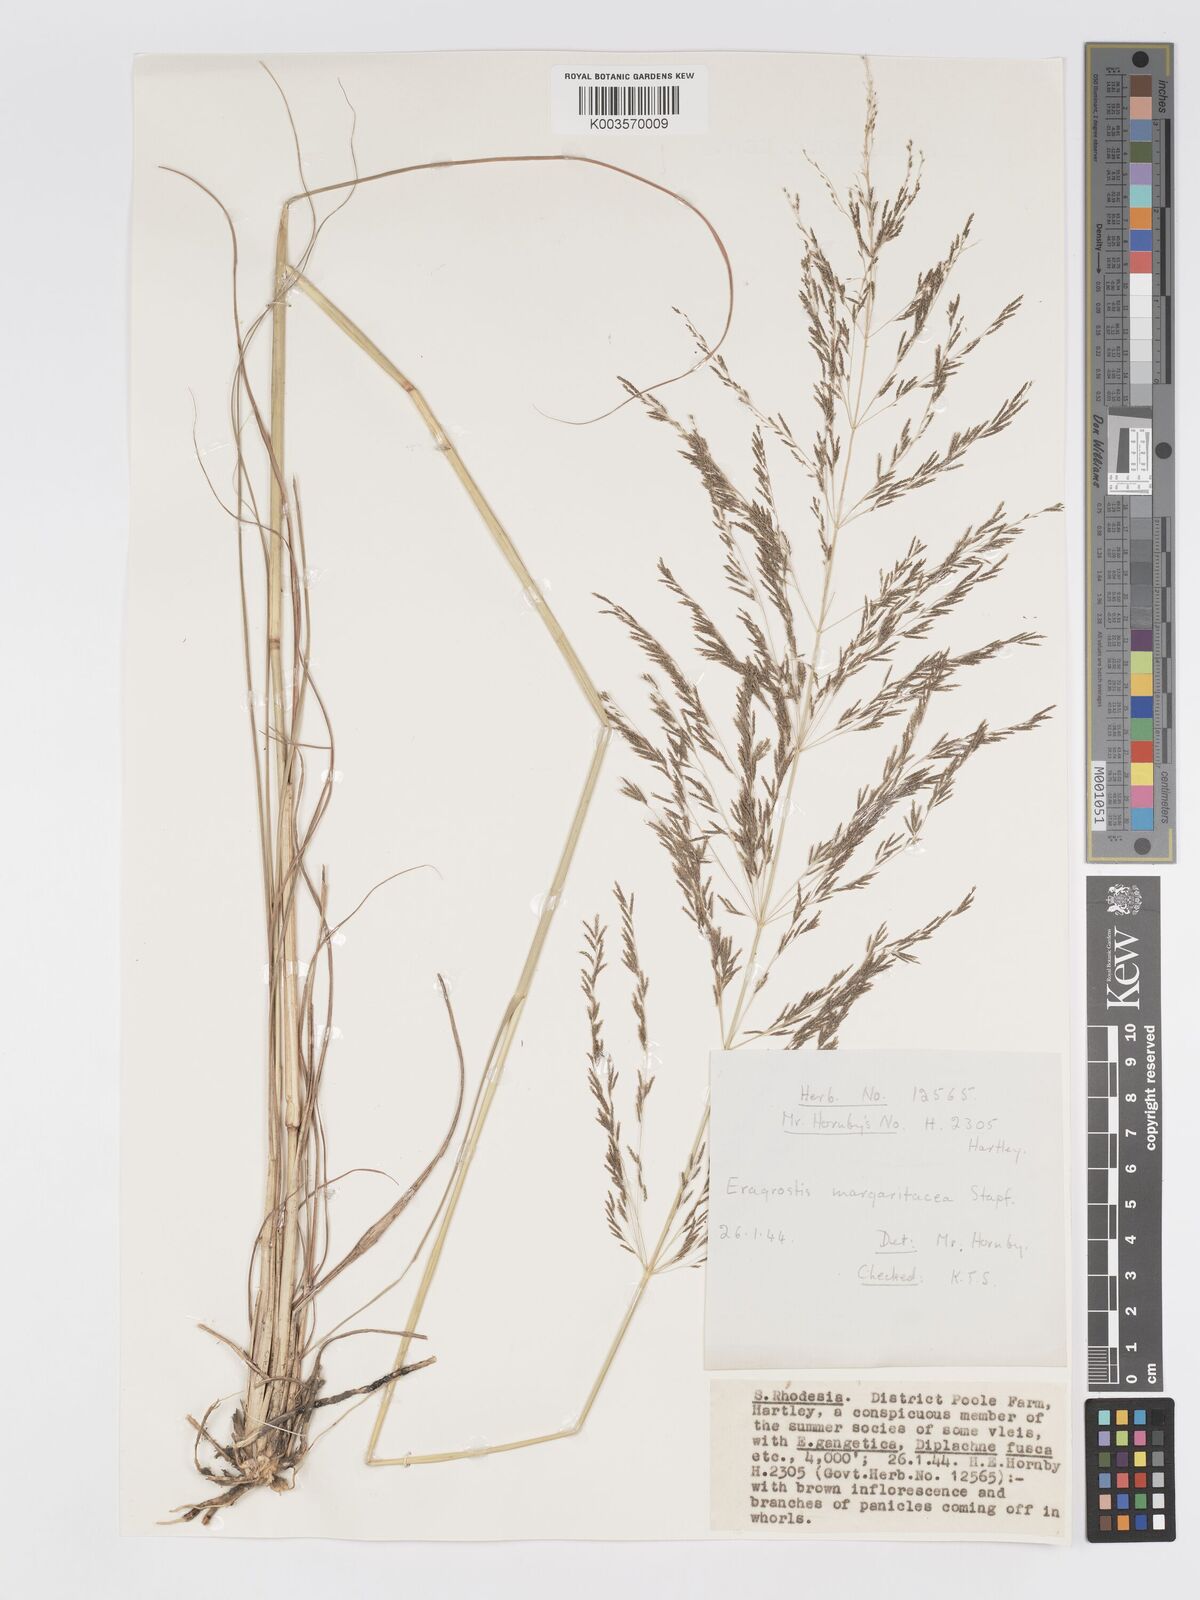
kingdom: Plantae
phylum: Tracheophyta
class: Liliopsida
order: Poales
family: Poaceae
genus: Eragrostis
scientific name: Eragrostis rotifer
